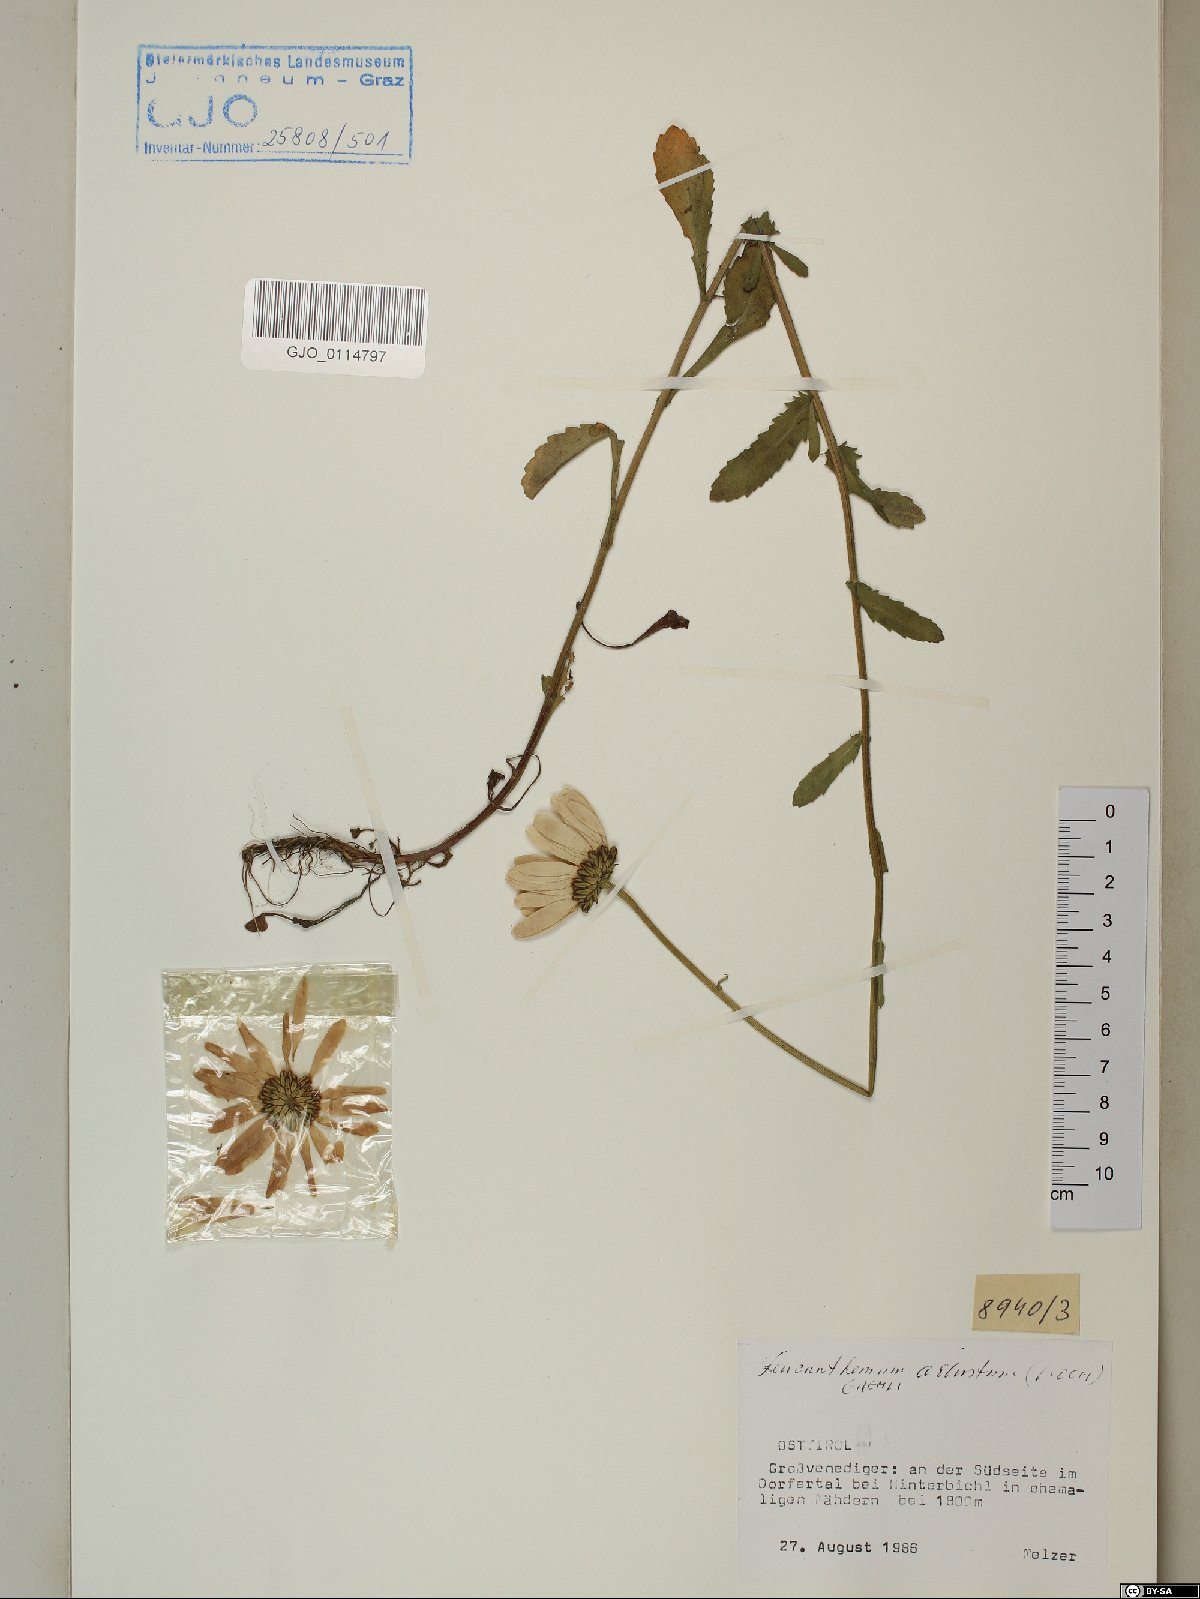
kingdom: Plantae
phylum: Tracheophyta
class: Magnoliopsida
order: Asterales
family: Asteraceae
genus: Leucanthemum
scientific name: Leucanthemum adustum
